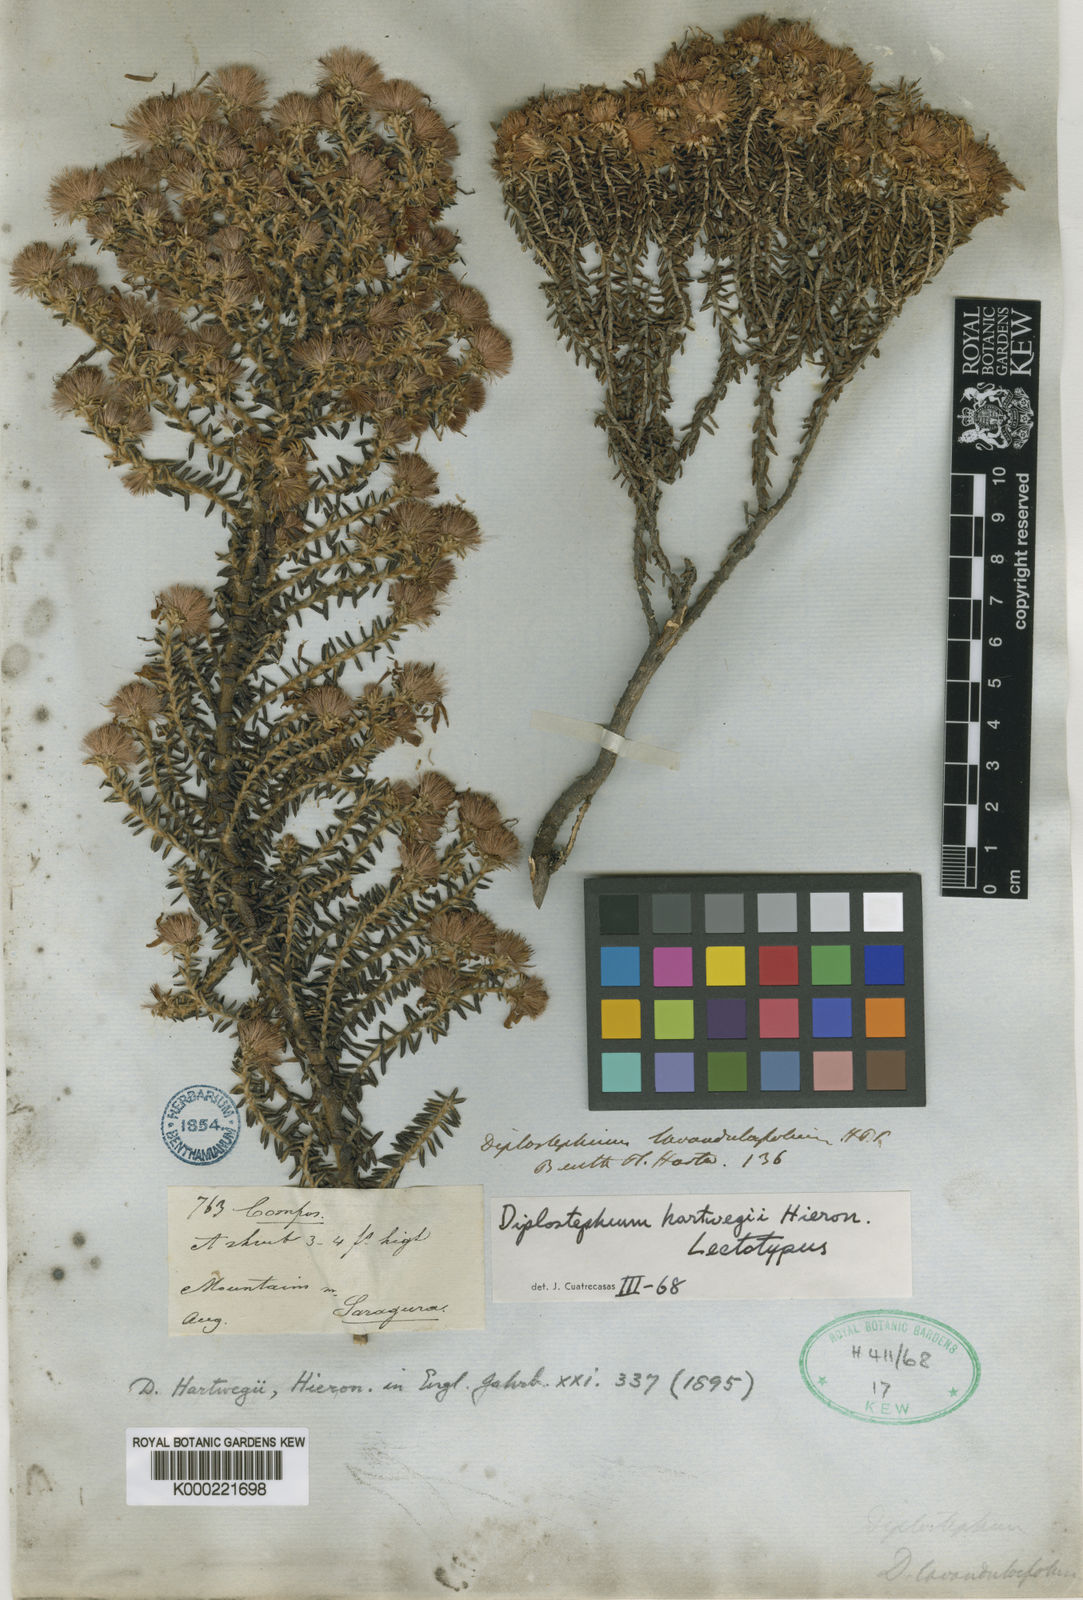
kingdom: Plantae
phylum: Tracheophyta
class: Magnoliopsida
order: Asterales
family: Asteraceae
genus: Diplostephium
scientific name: Diplostephium hartwegii
